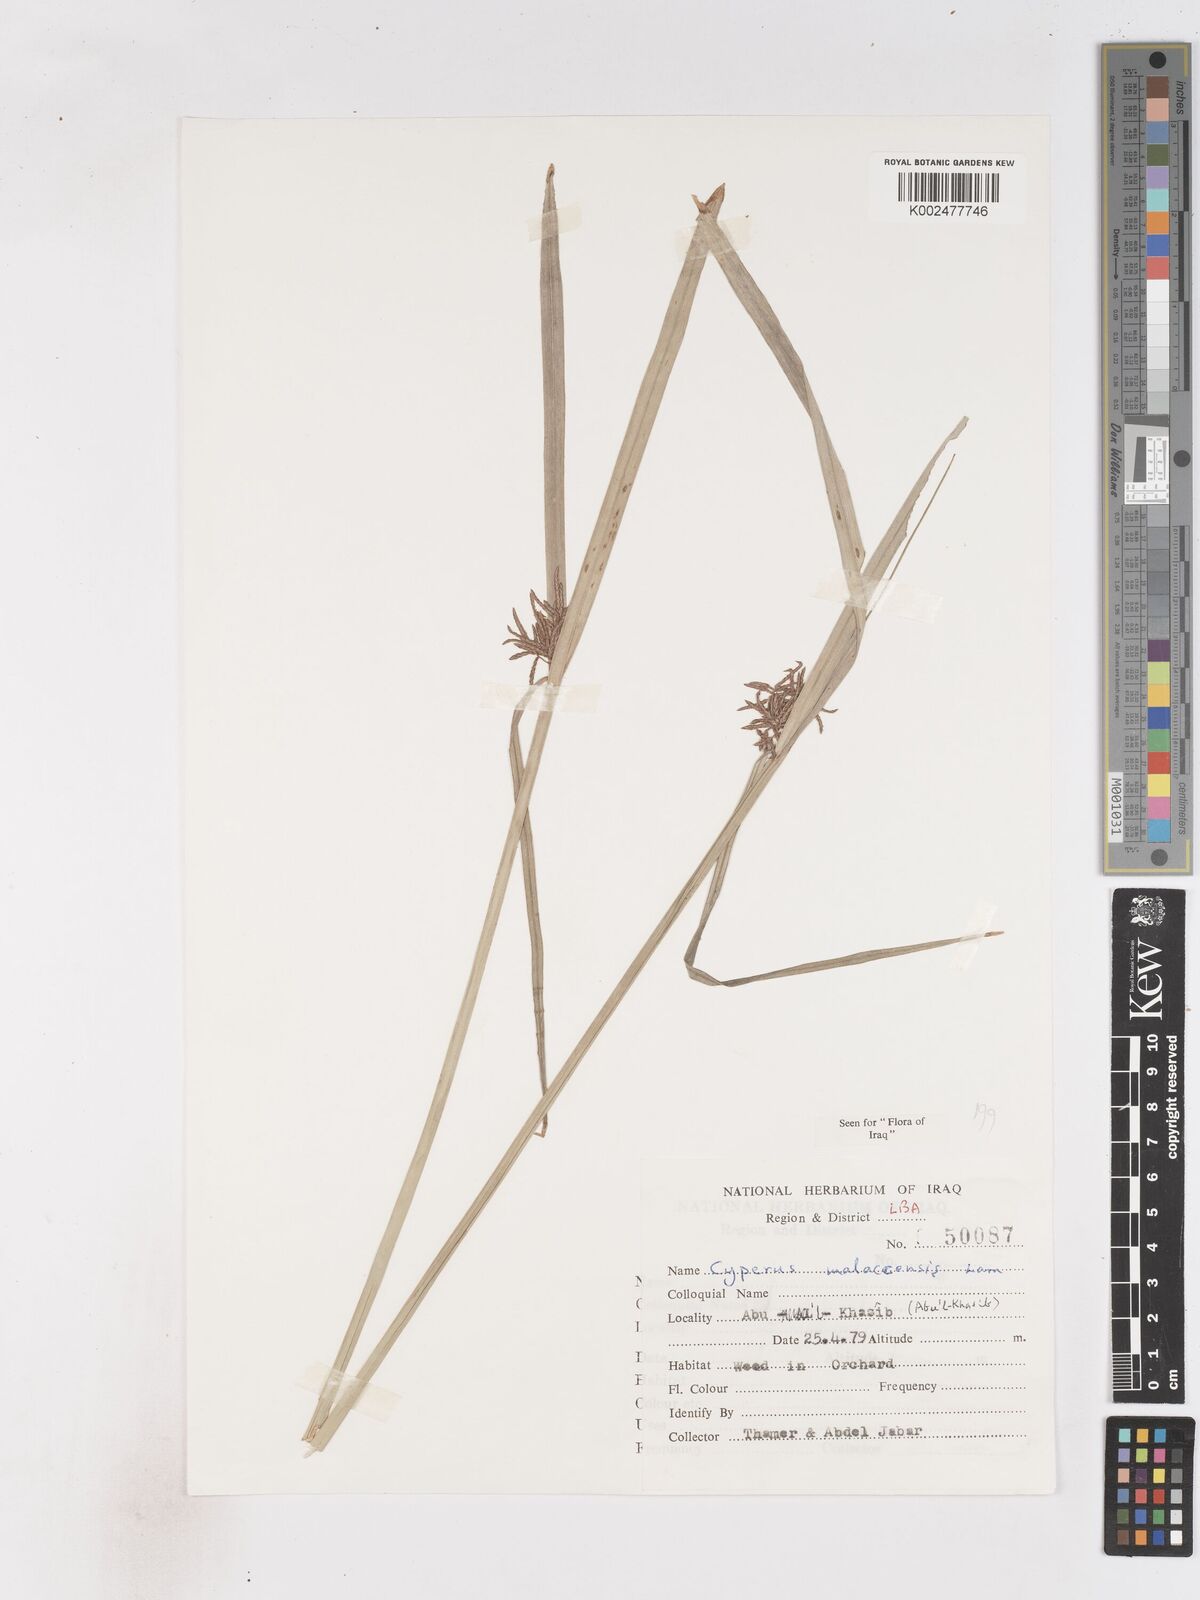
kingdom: Plantae
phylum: Tracheophyta
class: Liliopsida
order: Poales
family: Cyperaceae
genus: Cyperus
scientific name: Cyperus malaccensis
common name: Shichito matgrass
